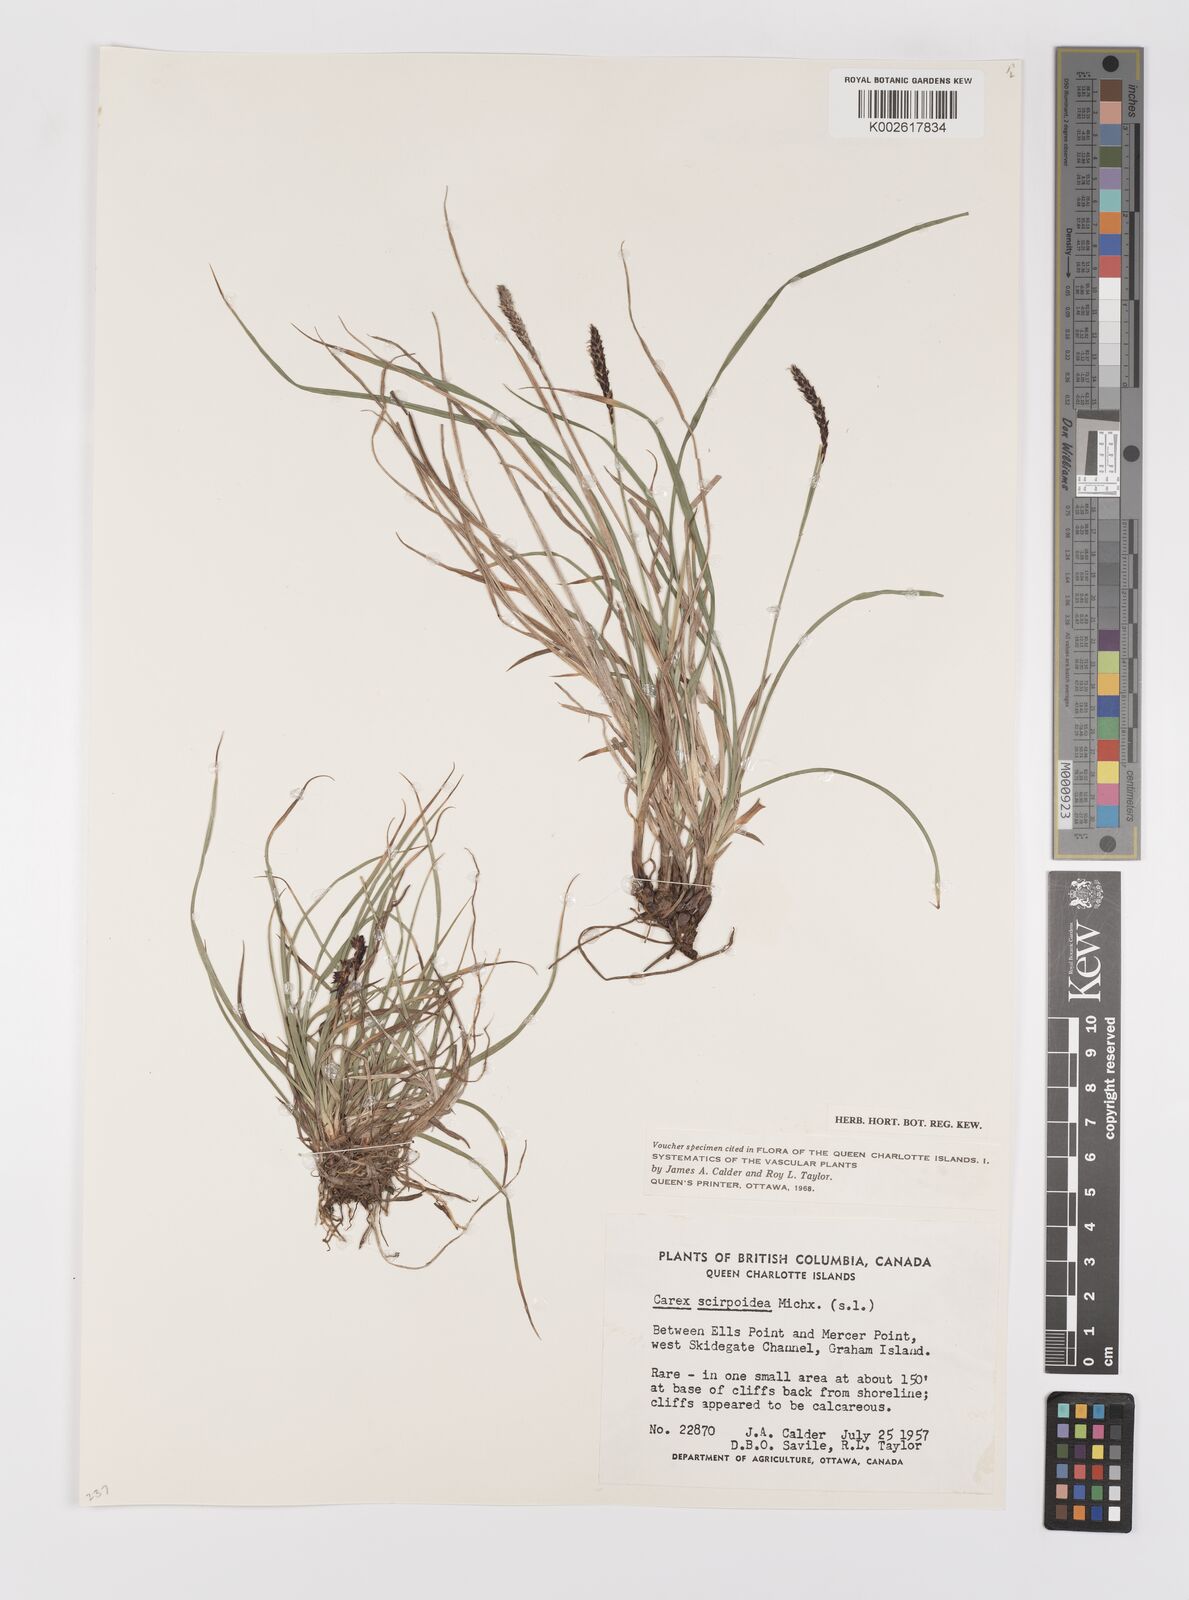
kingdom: Plantae
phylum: Tracheophyta
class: Liliopsida
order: Poales
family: Cyperaceae
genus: Carex
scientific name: Carex scirpoidea
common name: Canada single-spike sedge
